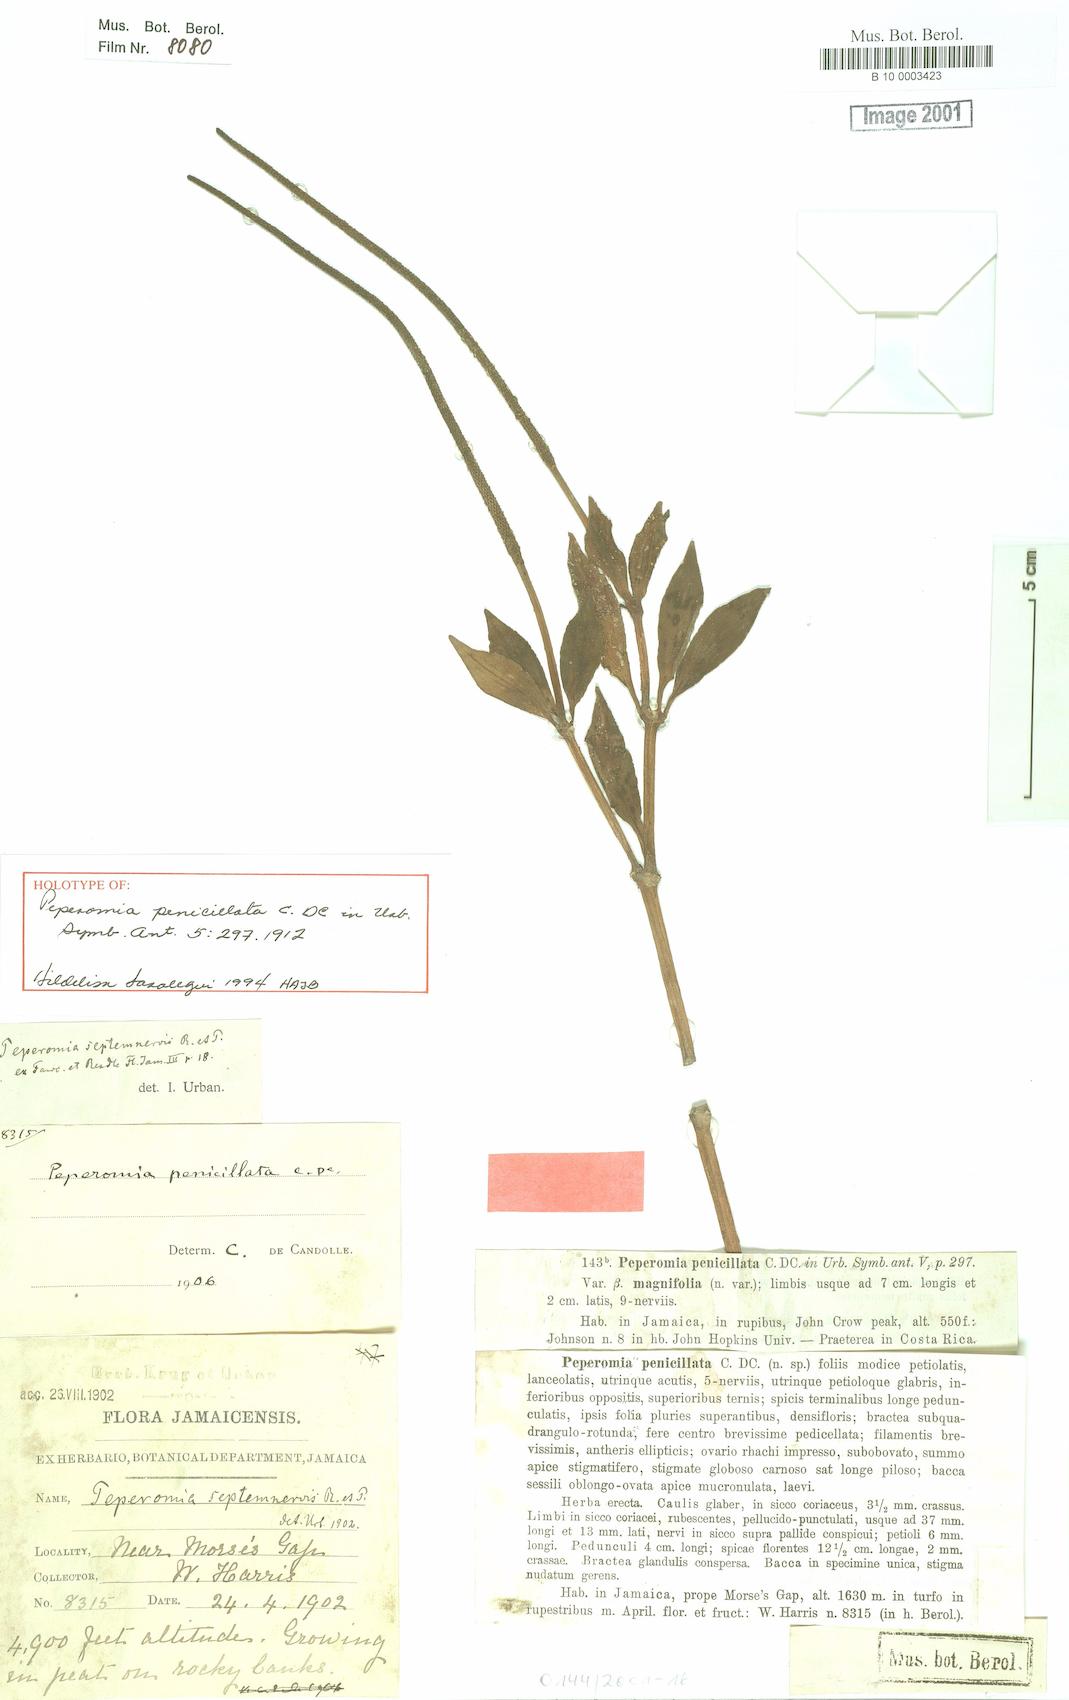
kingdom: Plantae
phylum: Tracheophyta
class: Magnoliopsida
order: Piperales
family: Piperaceae
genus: Peperomia
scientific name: Peperomia penicillata
